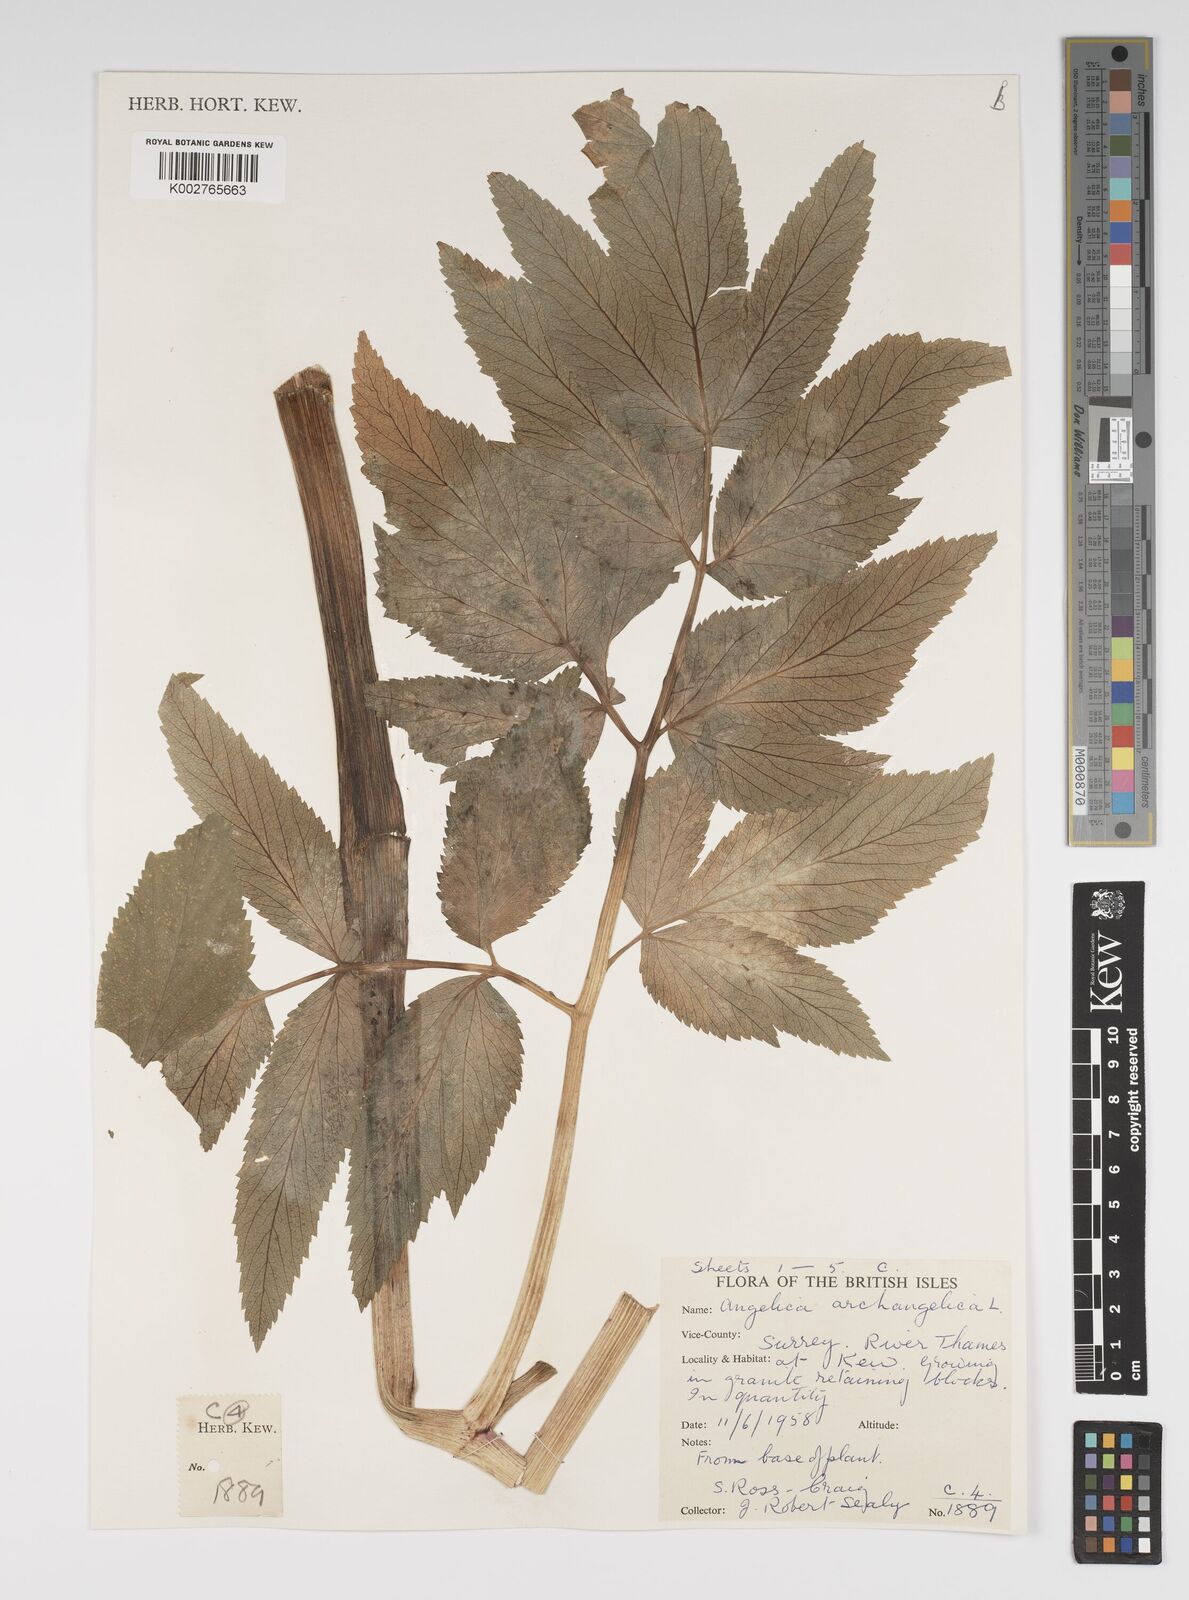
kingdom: Plantae
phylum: Tracheophyta
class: Magnoliopsida
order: Apiales
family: Apiaceae
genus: Angelica
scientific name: Angelica archangelica
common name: Garden angelica
